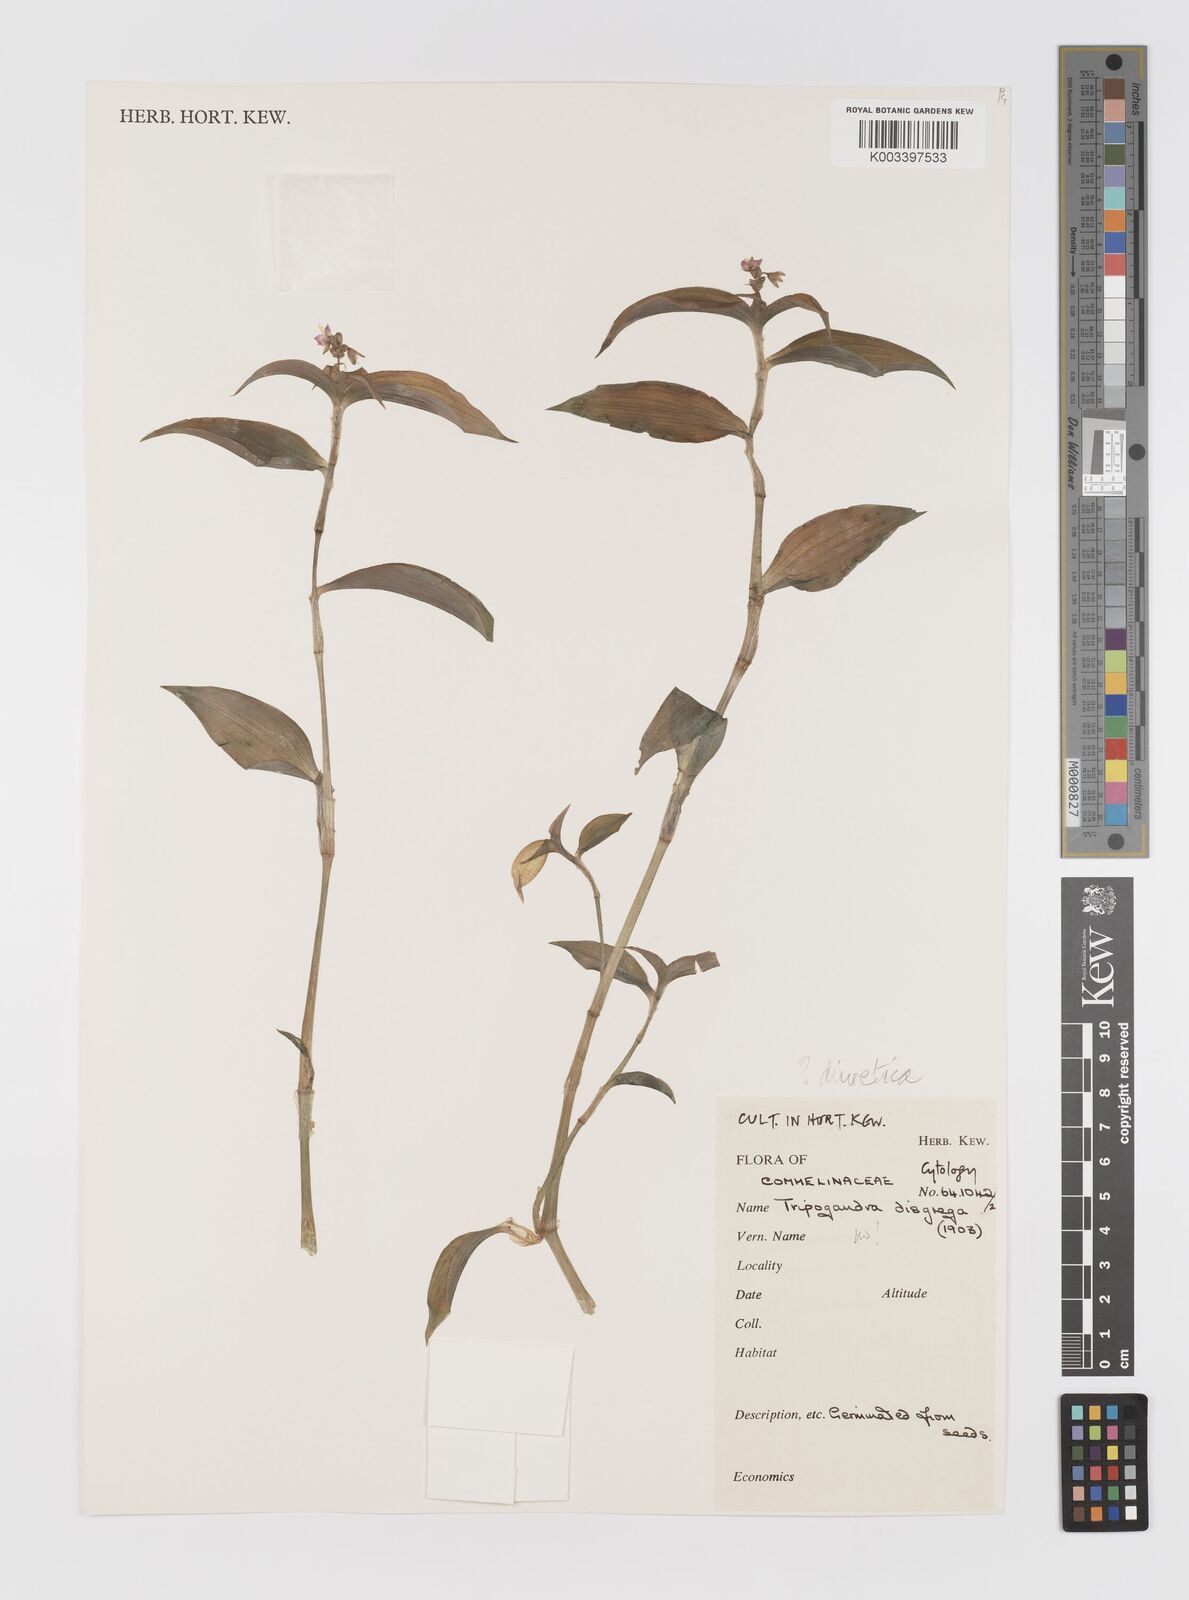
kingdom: Plantae
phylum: Tracheophyta
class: Liliopsida
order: Commelinales
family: Commelinaceae
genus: Callisia
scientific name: Callisia diuretica
